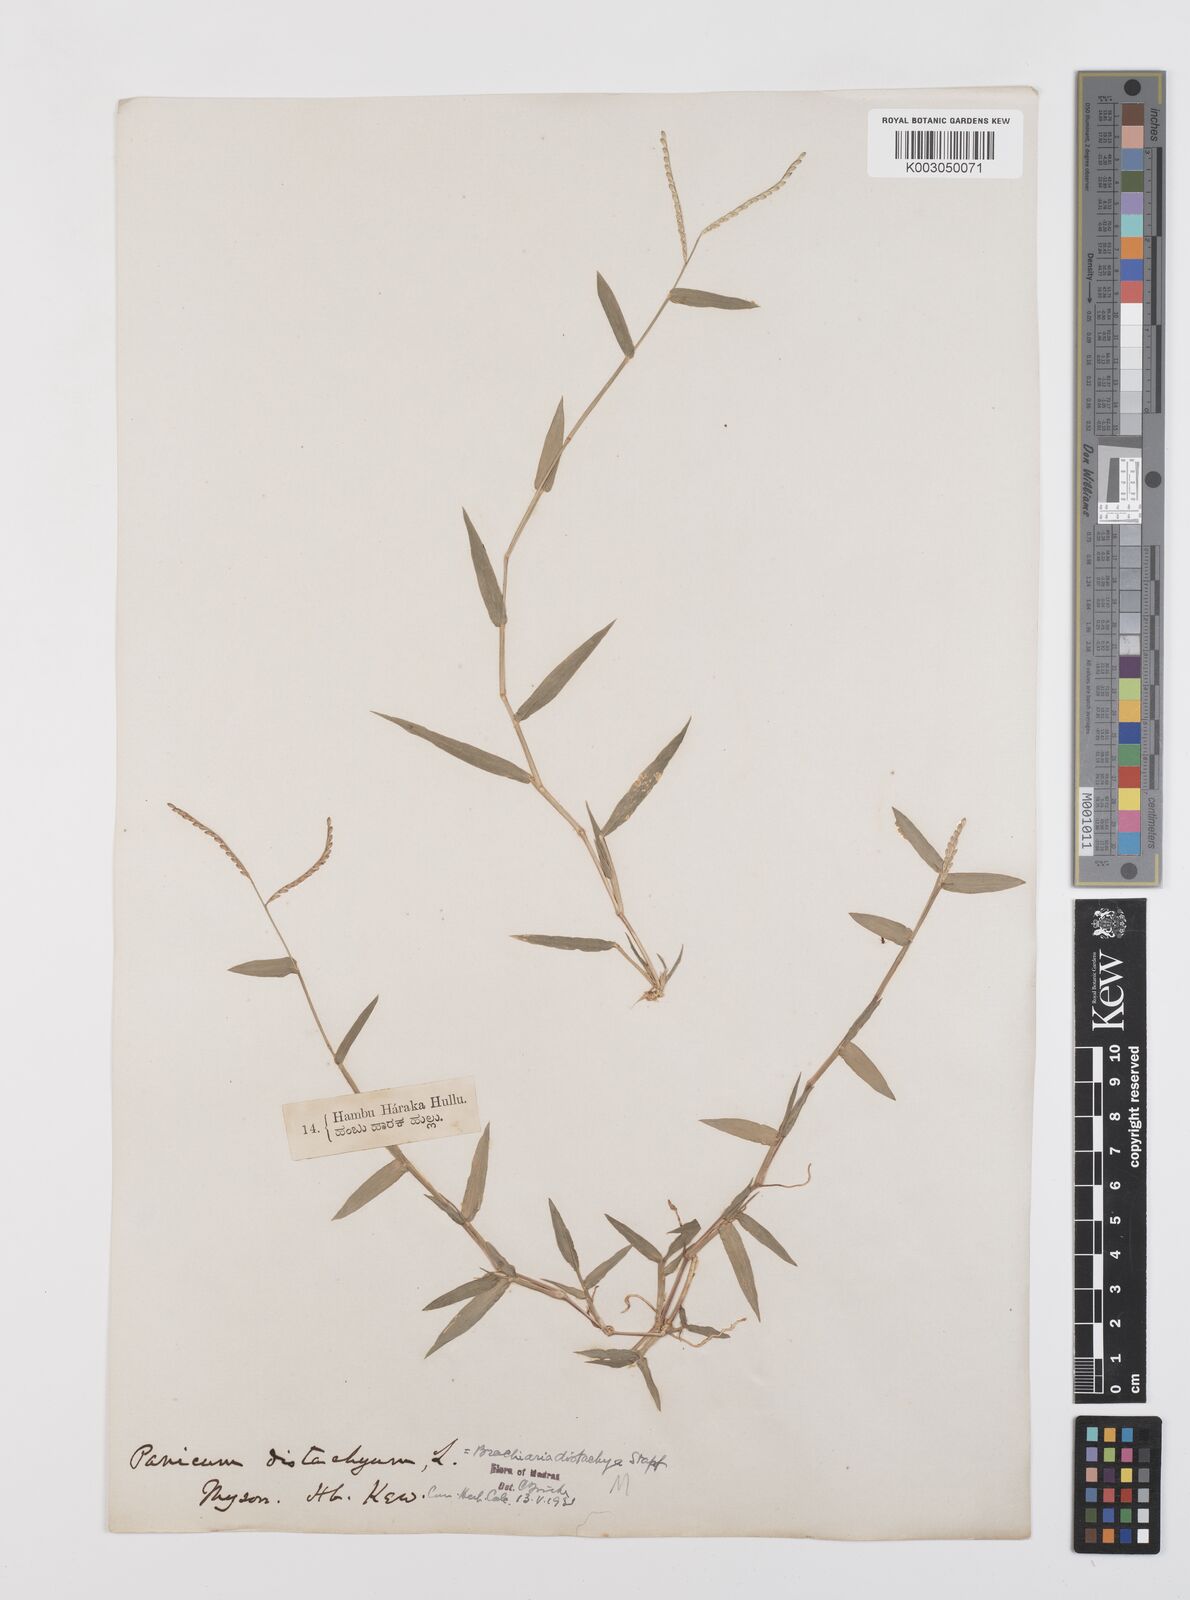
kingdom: Plantae
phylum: Tracheophyta
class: Liliopsida
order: Poales
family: Poaceae
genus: Urochloa
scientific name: Urochloa distachyos
